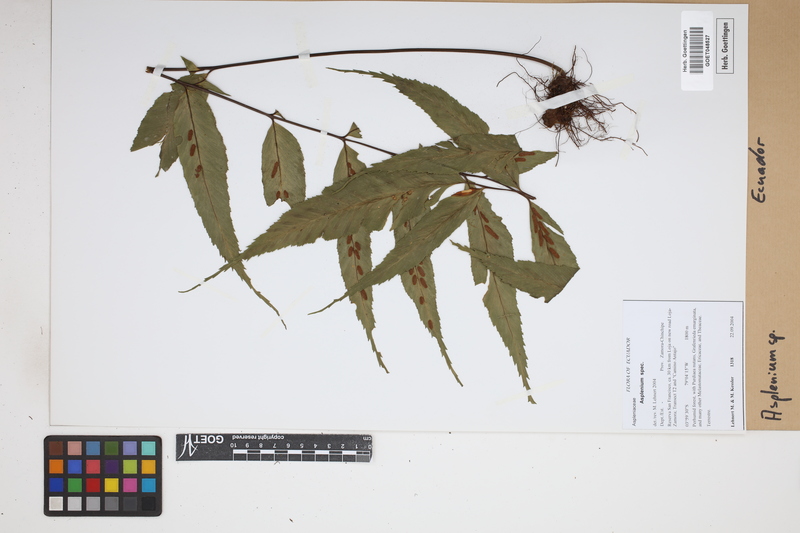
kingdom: Plantae
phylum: Tracheophyta
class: Polypodiopsida
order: Polypodiales
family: Aspleniaceae
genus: Asplenium
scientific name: Asplenium
